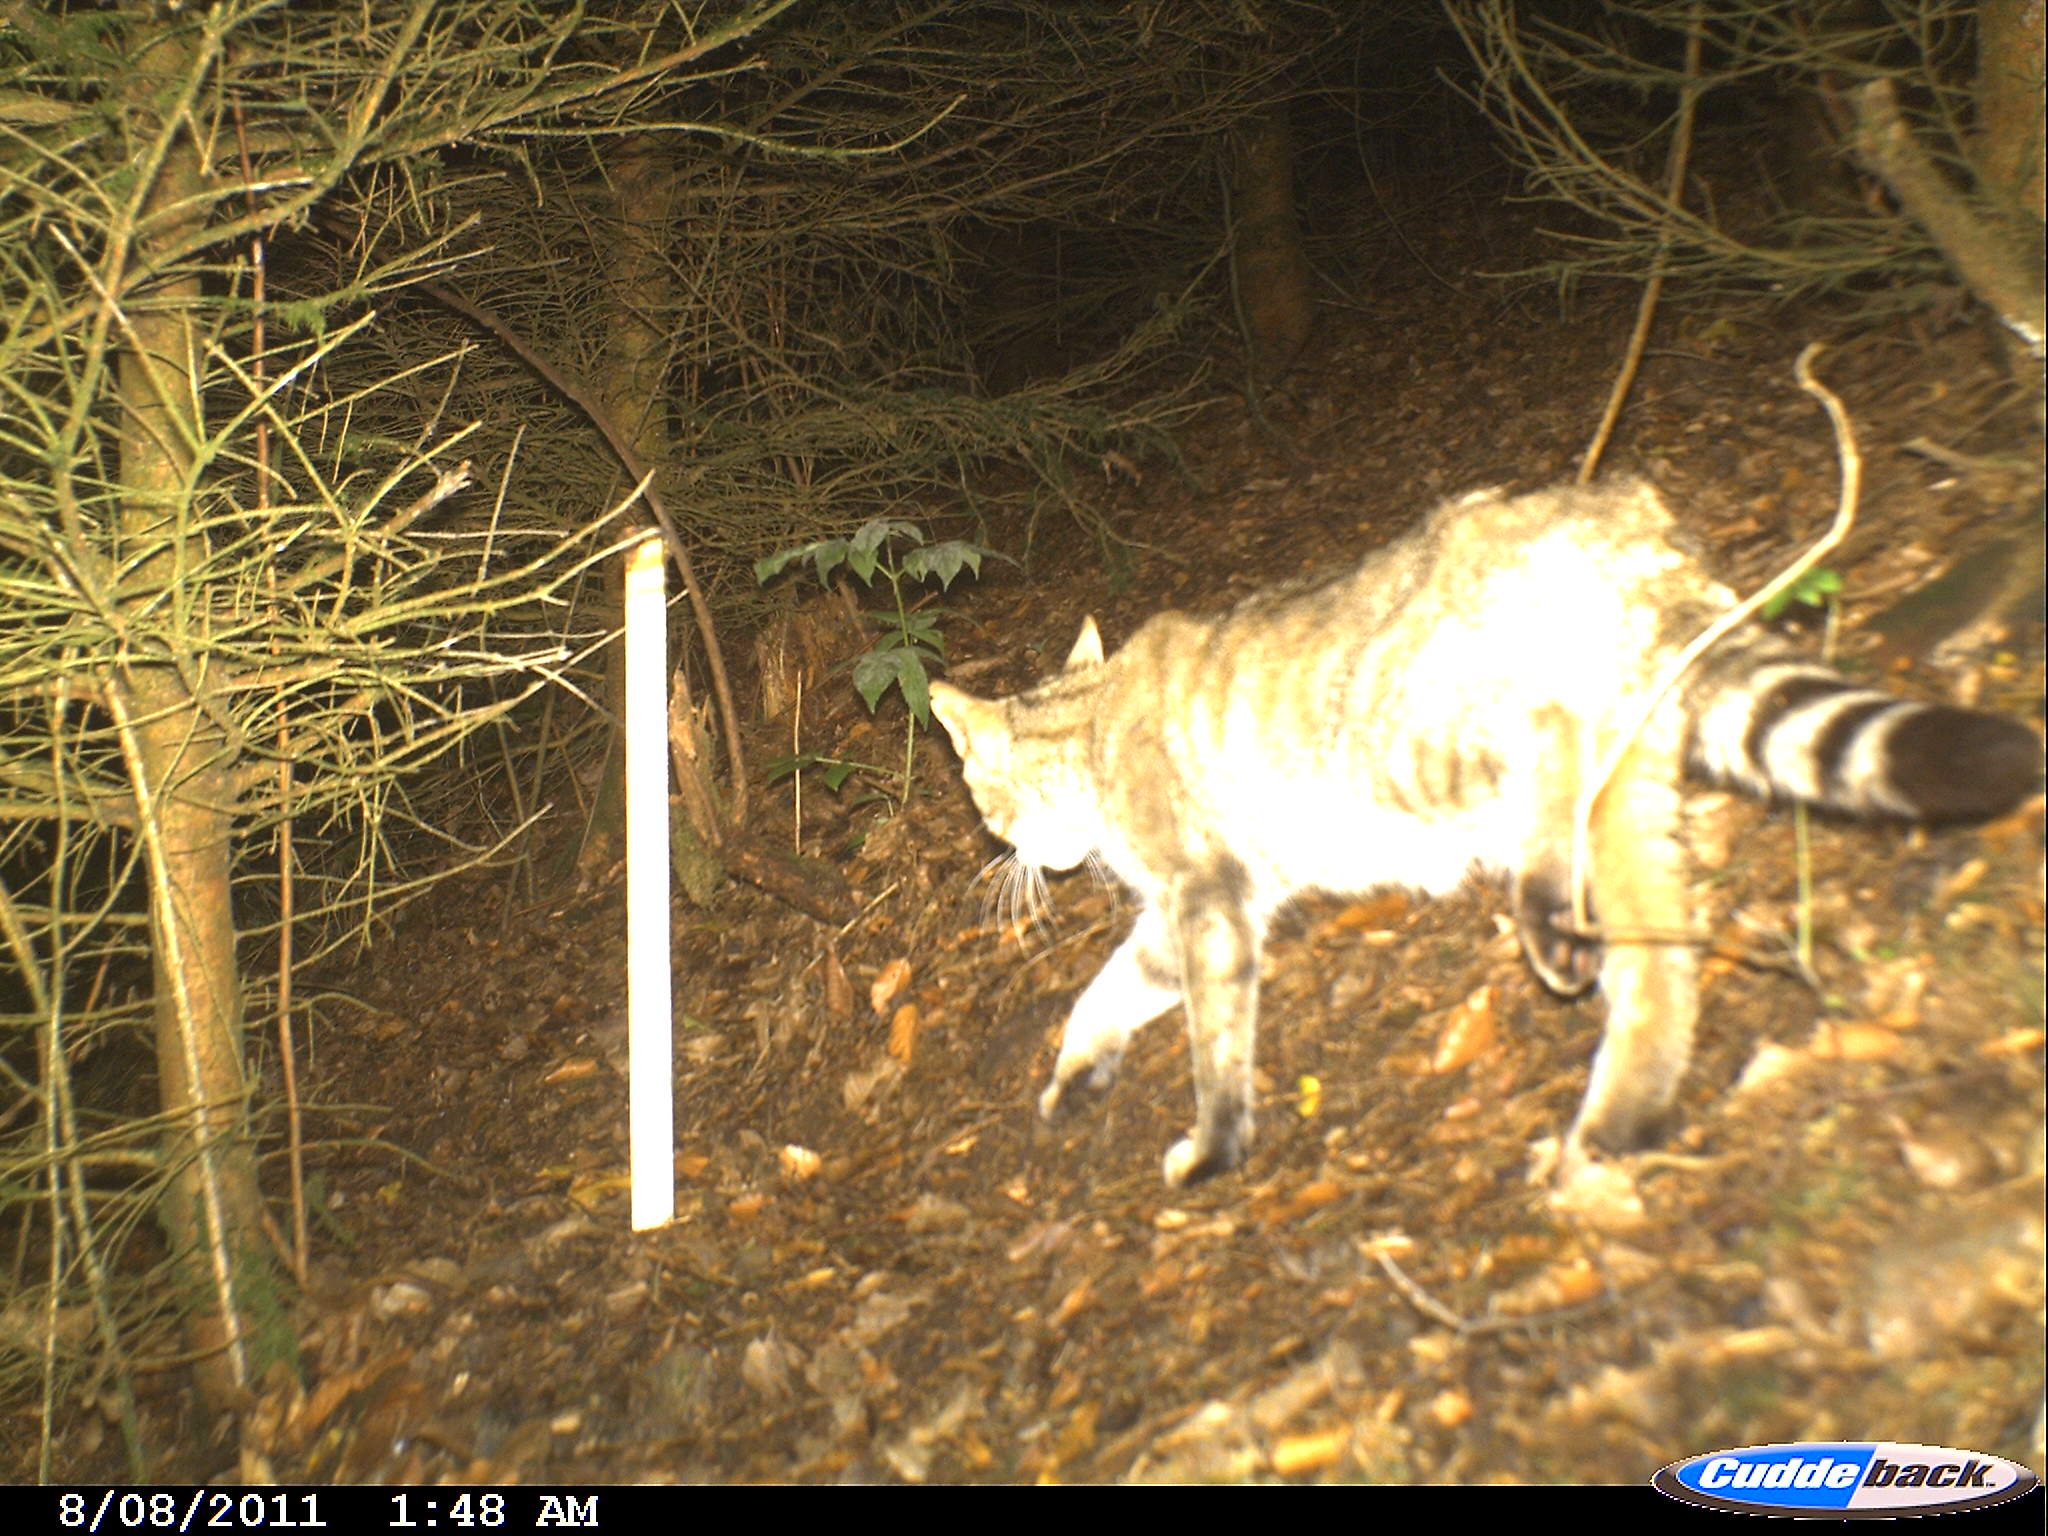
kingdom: Animalia
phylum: Chordata
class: Mammalia
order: Carnivora
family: Felidae
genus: Felis
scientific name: Felis silvestris
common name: Wildcat
